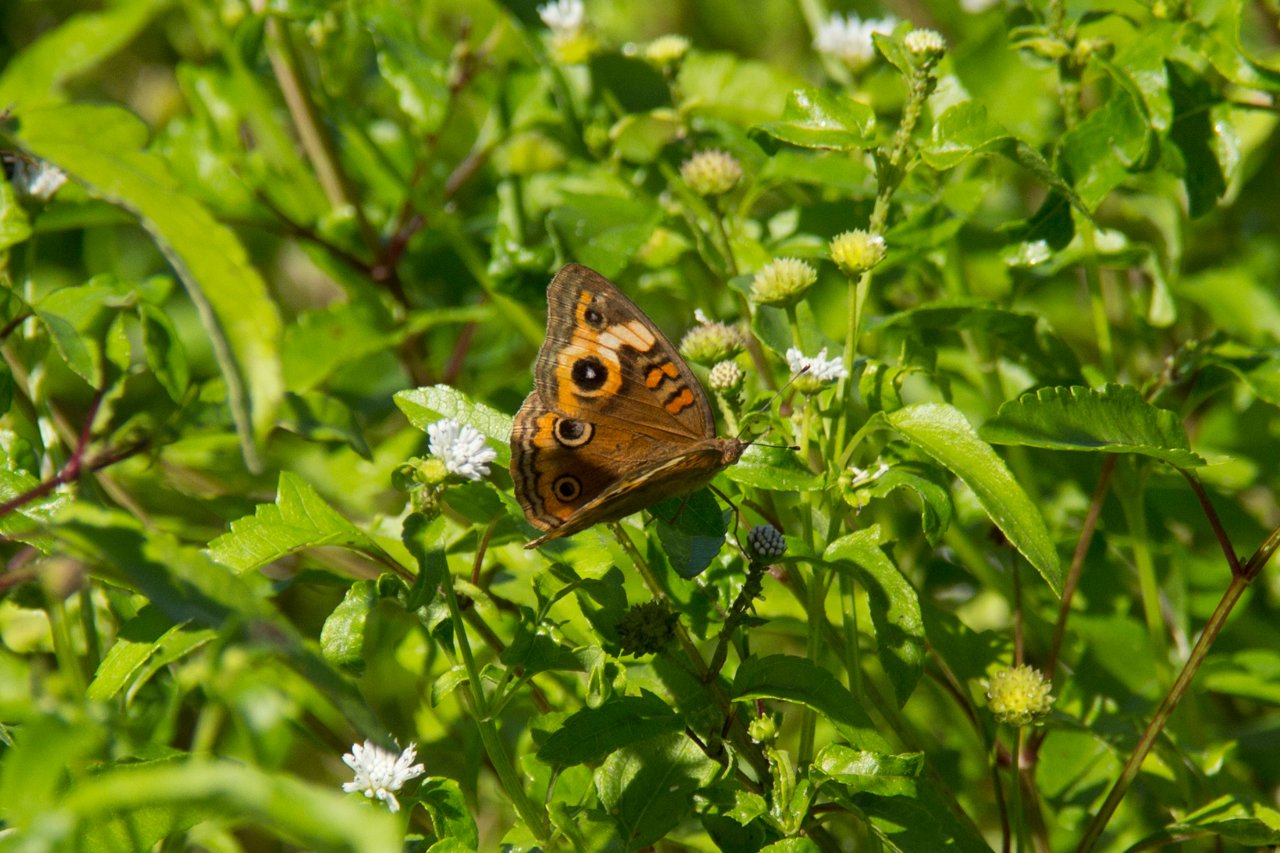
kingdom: Animalia
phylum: Arthropoda
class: Insecta
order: Lepidoptera
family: Nymphalidae
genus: Junonia
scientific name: Junonia evarete
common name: Mangrove Buckeye
